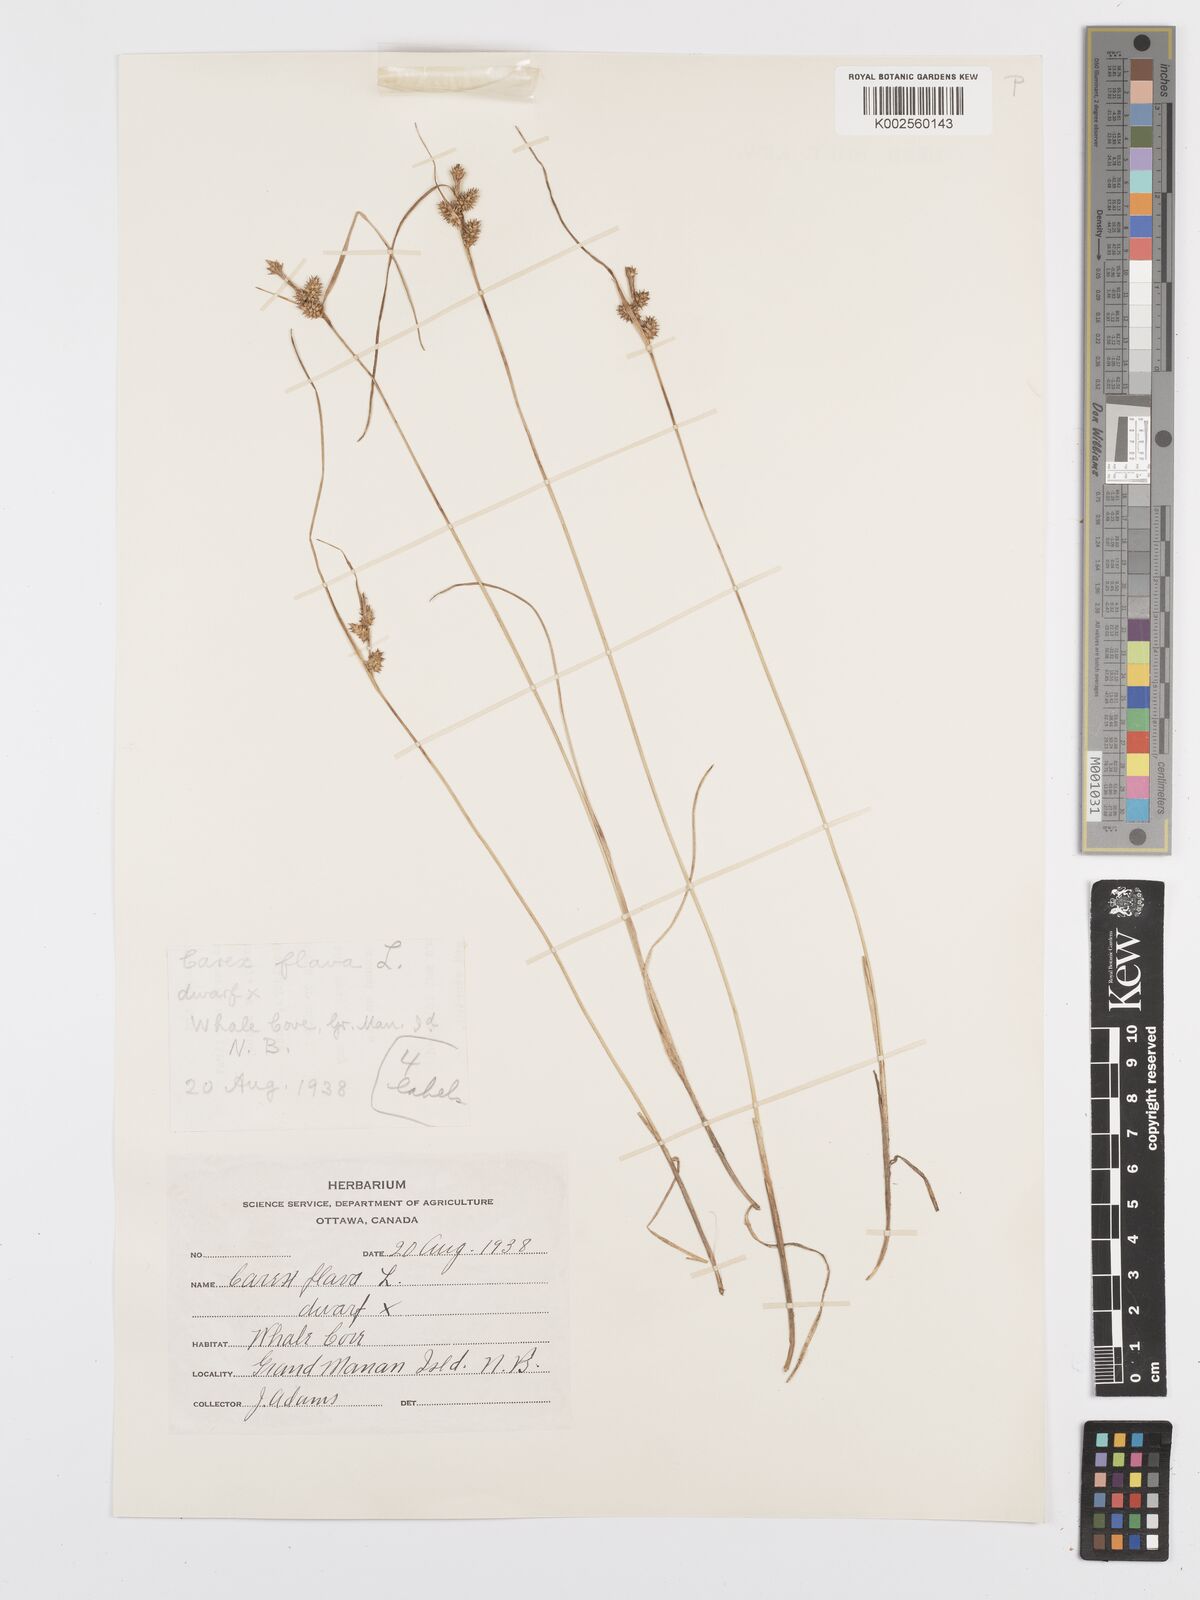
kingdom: Plantae
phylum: Tracheophyta
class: Liliopsida
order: Poales
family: Cyperaceae
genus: Carex
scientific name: Carex oederi
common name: Common & small-fruited yellow-sedge
